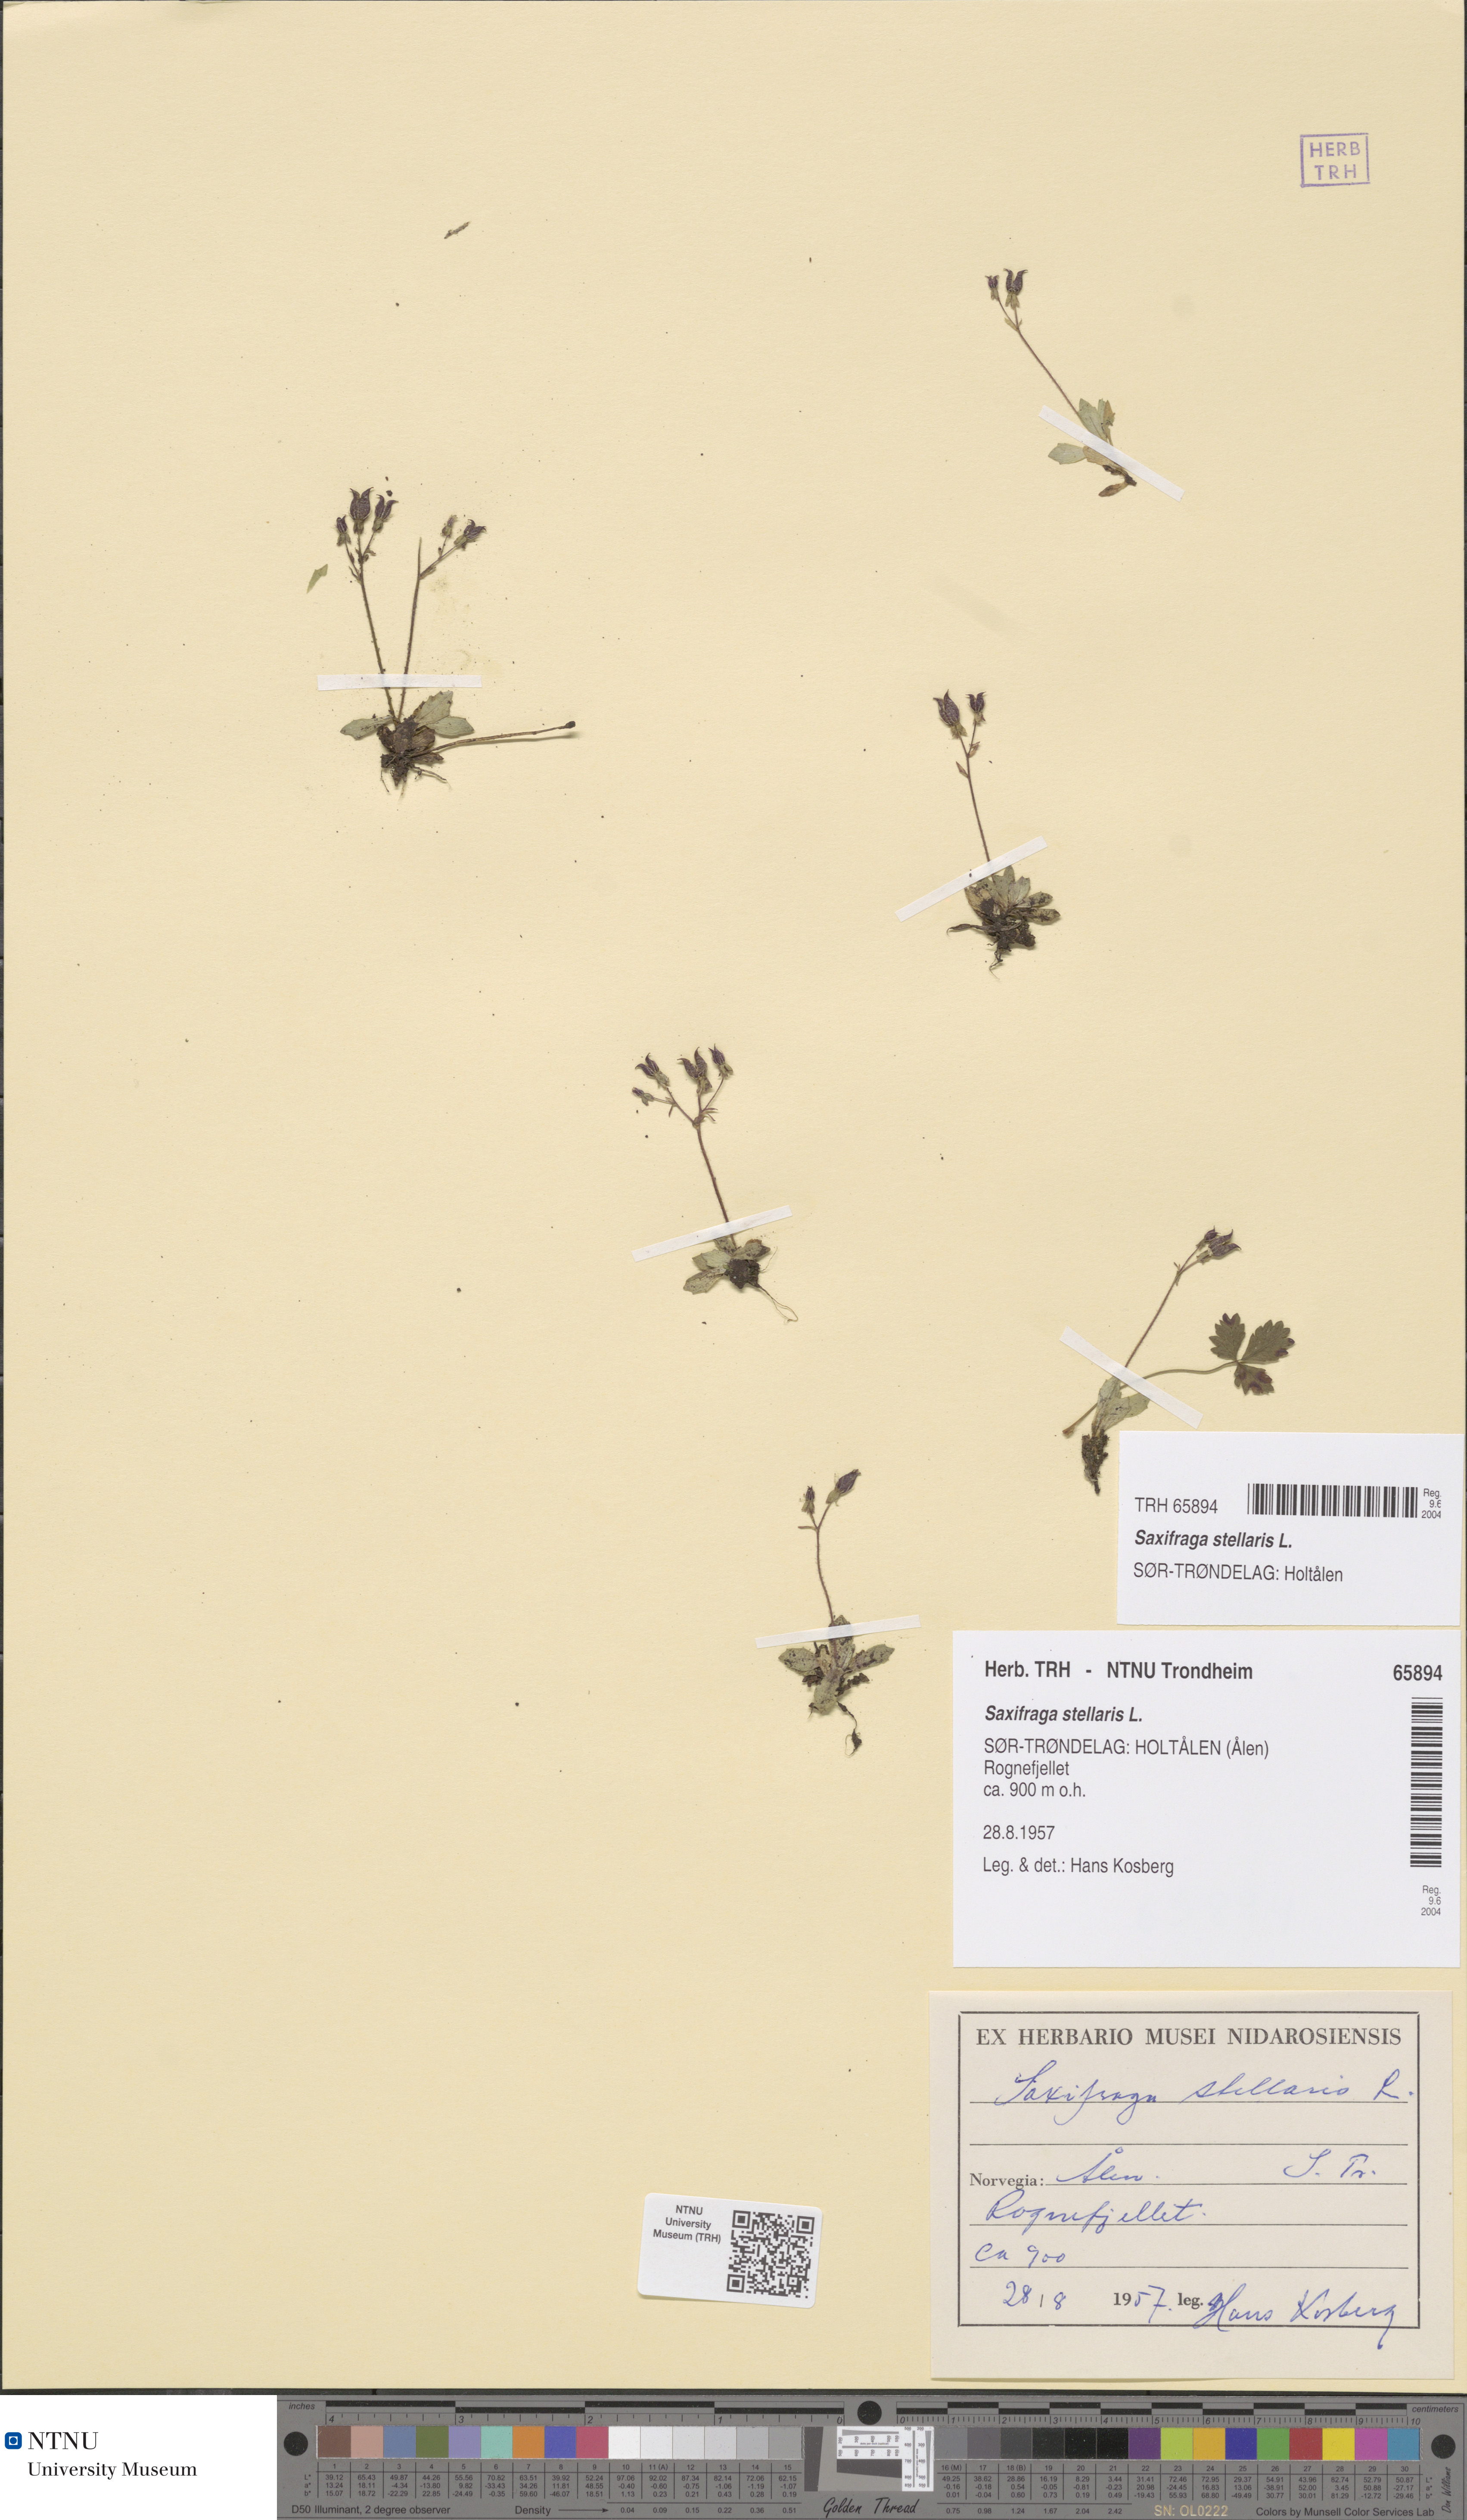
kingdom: Plantae
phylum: Tracheophyta
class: Magnoliopsida
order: Saxifragales
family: Saxifragaceae
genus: Micranthes
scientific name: Micranthes stellaris
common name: Starry saxifrage
